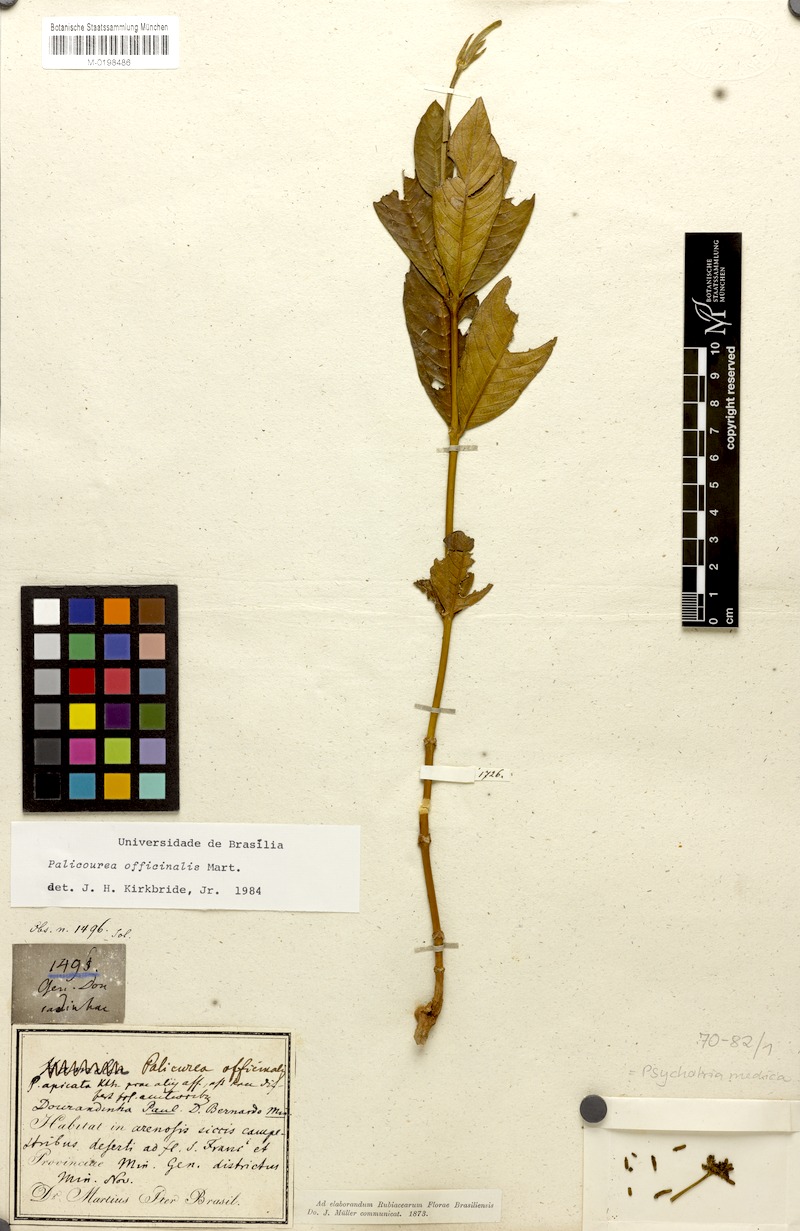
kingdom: Plantae
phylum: Tracheophyta
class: Magnoliopsida
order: Gentianales
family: Rubiaceae
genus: Palicourea
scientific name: Palicourea officinalis
